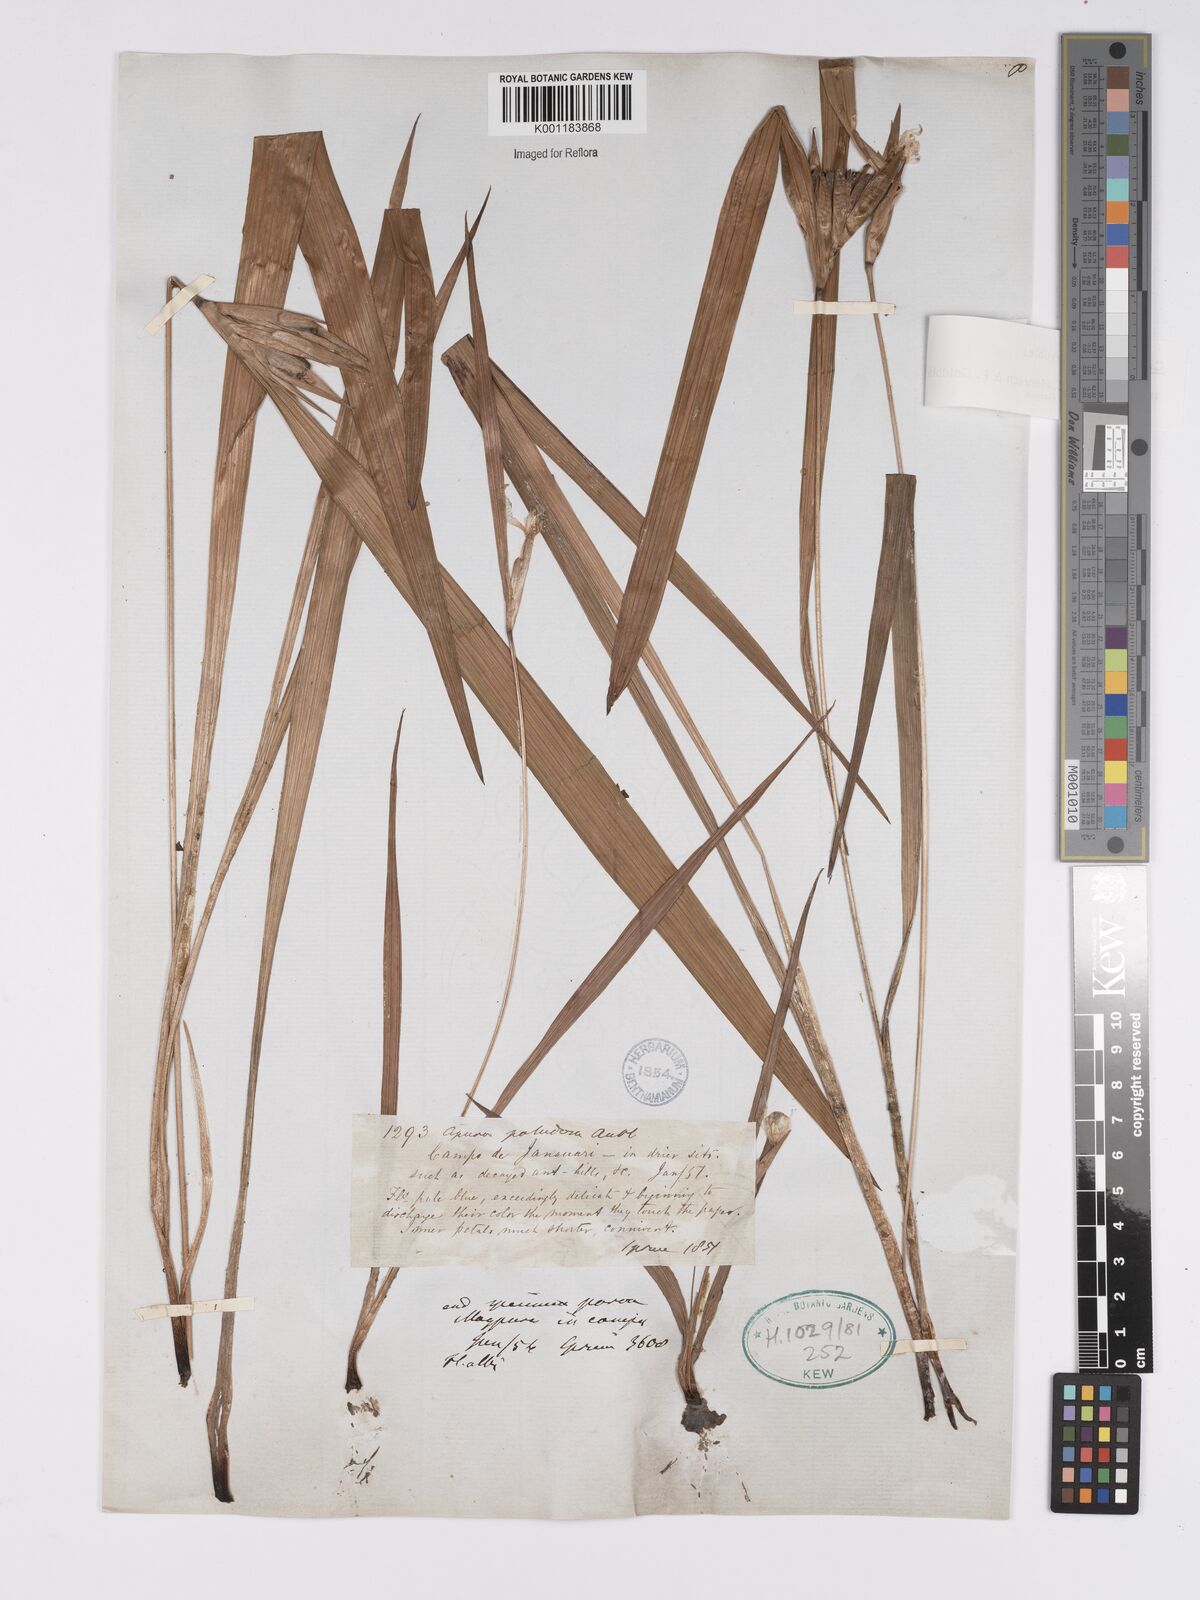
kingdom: Plantae
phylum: Tracheophyta
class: Liliopsida
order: Asparagales
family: Iridaceae
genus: Cipura
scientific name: Cipura paludosa
